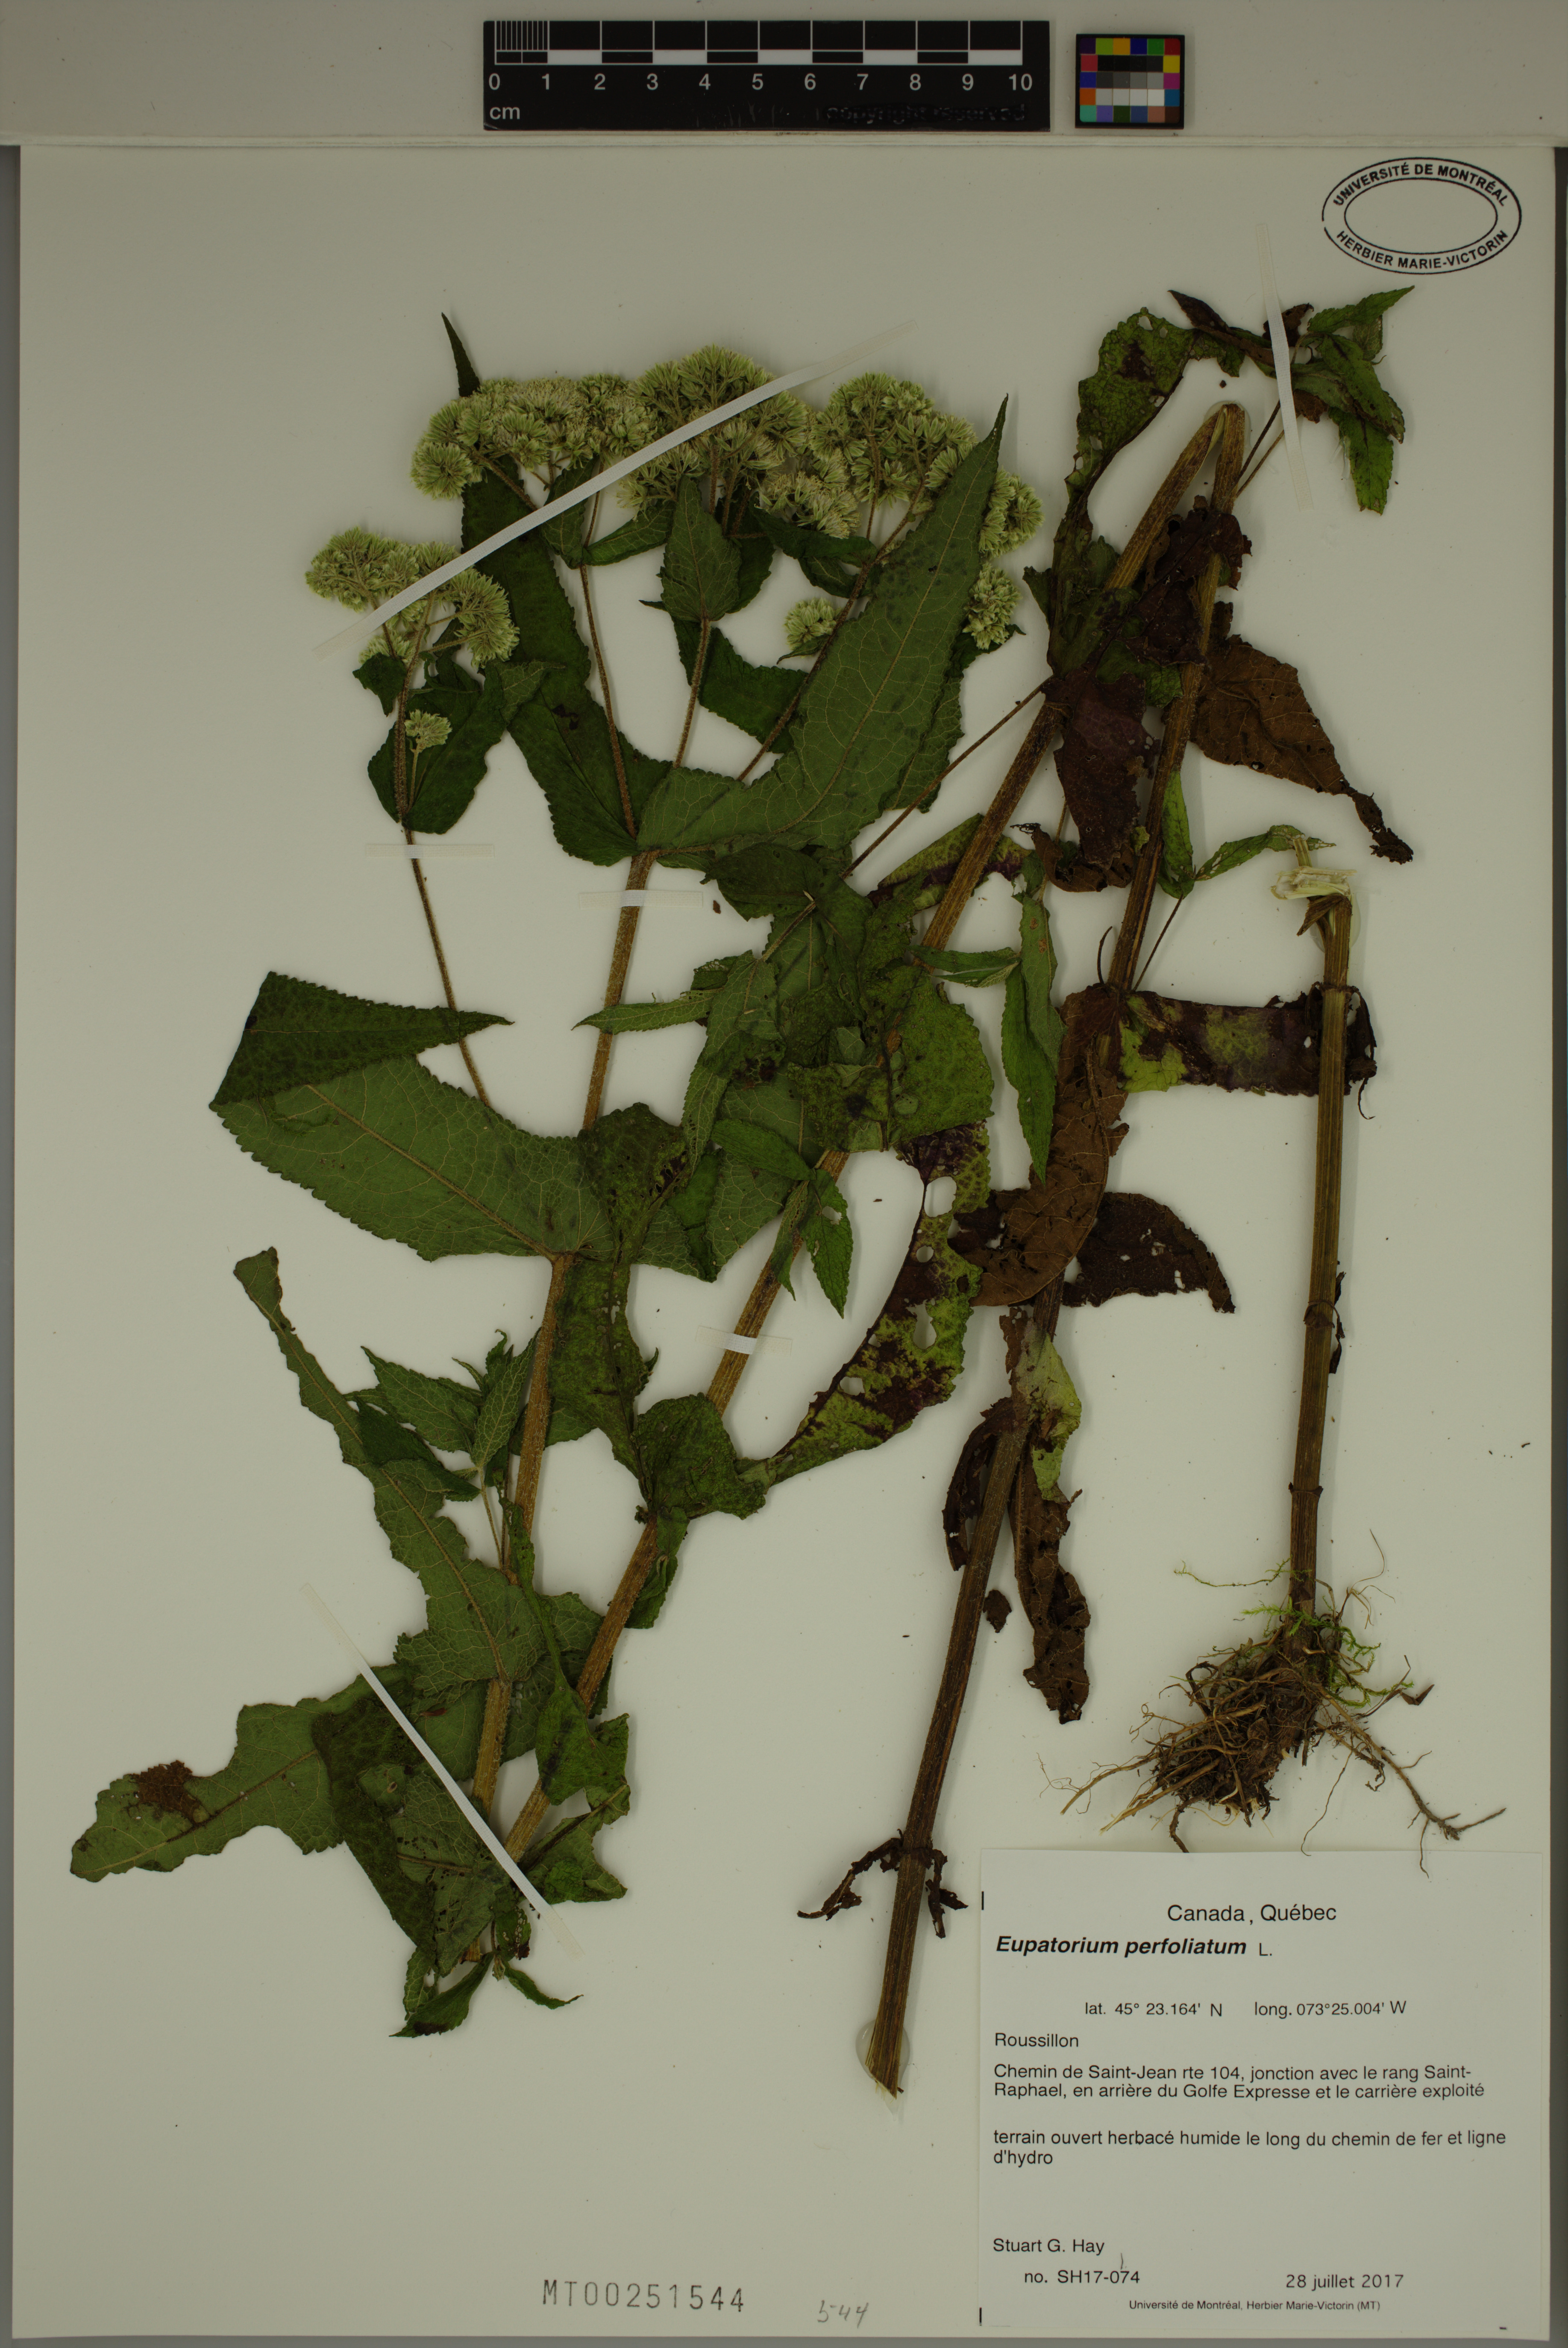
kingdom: Plantae
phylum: Tracheophyta
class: Magnoliopsida
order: Asterales
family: Asteraceae
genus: Eupatorium
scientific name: Eupatorium perfoliatum
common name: Boneset
